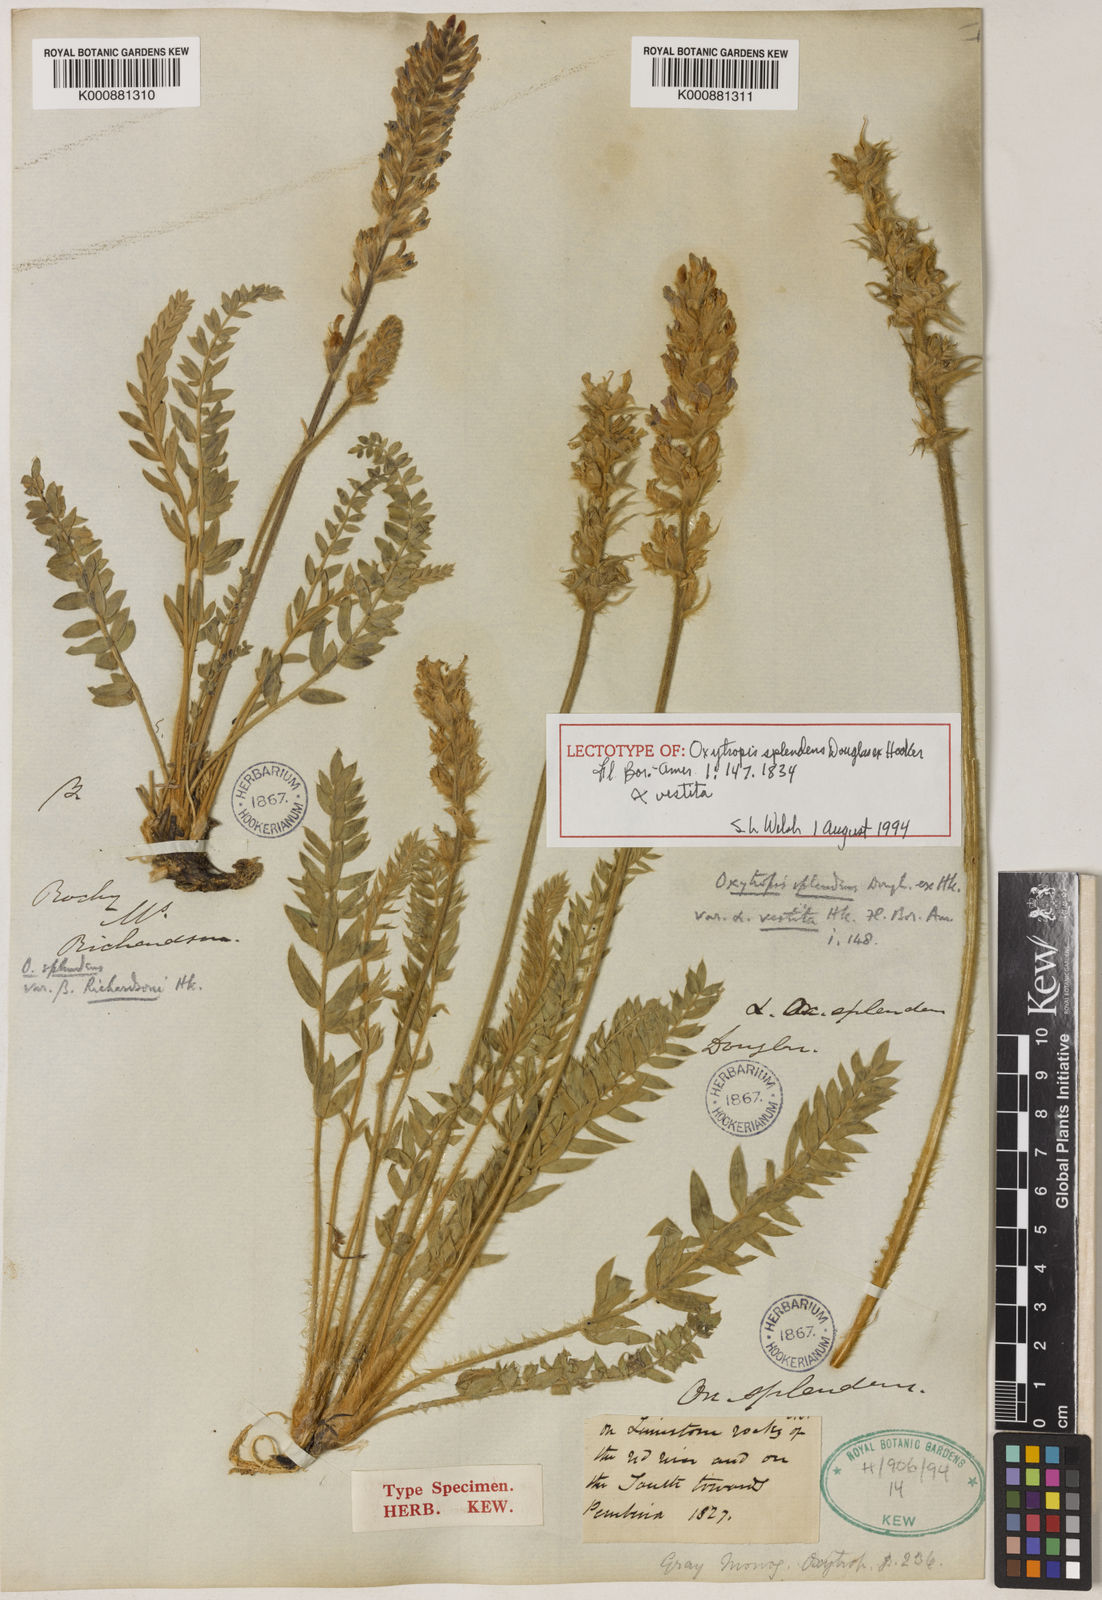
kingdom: Plantae
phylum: Tracheophyta
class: Magnoliopsida
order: Fabales
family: Fabaceae
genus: Oxytropis
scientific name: Oxytropis
